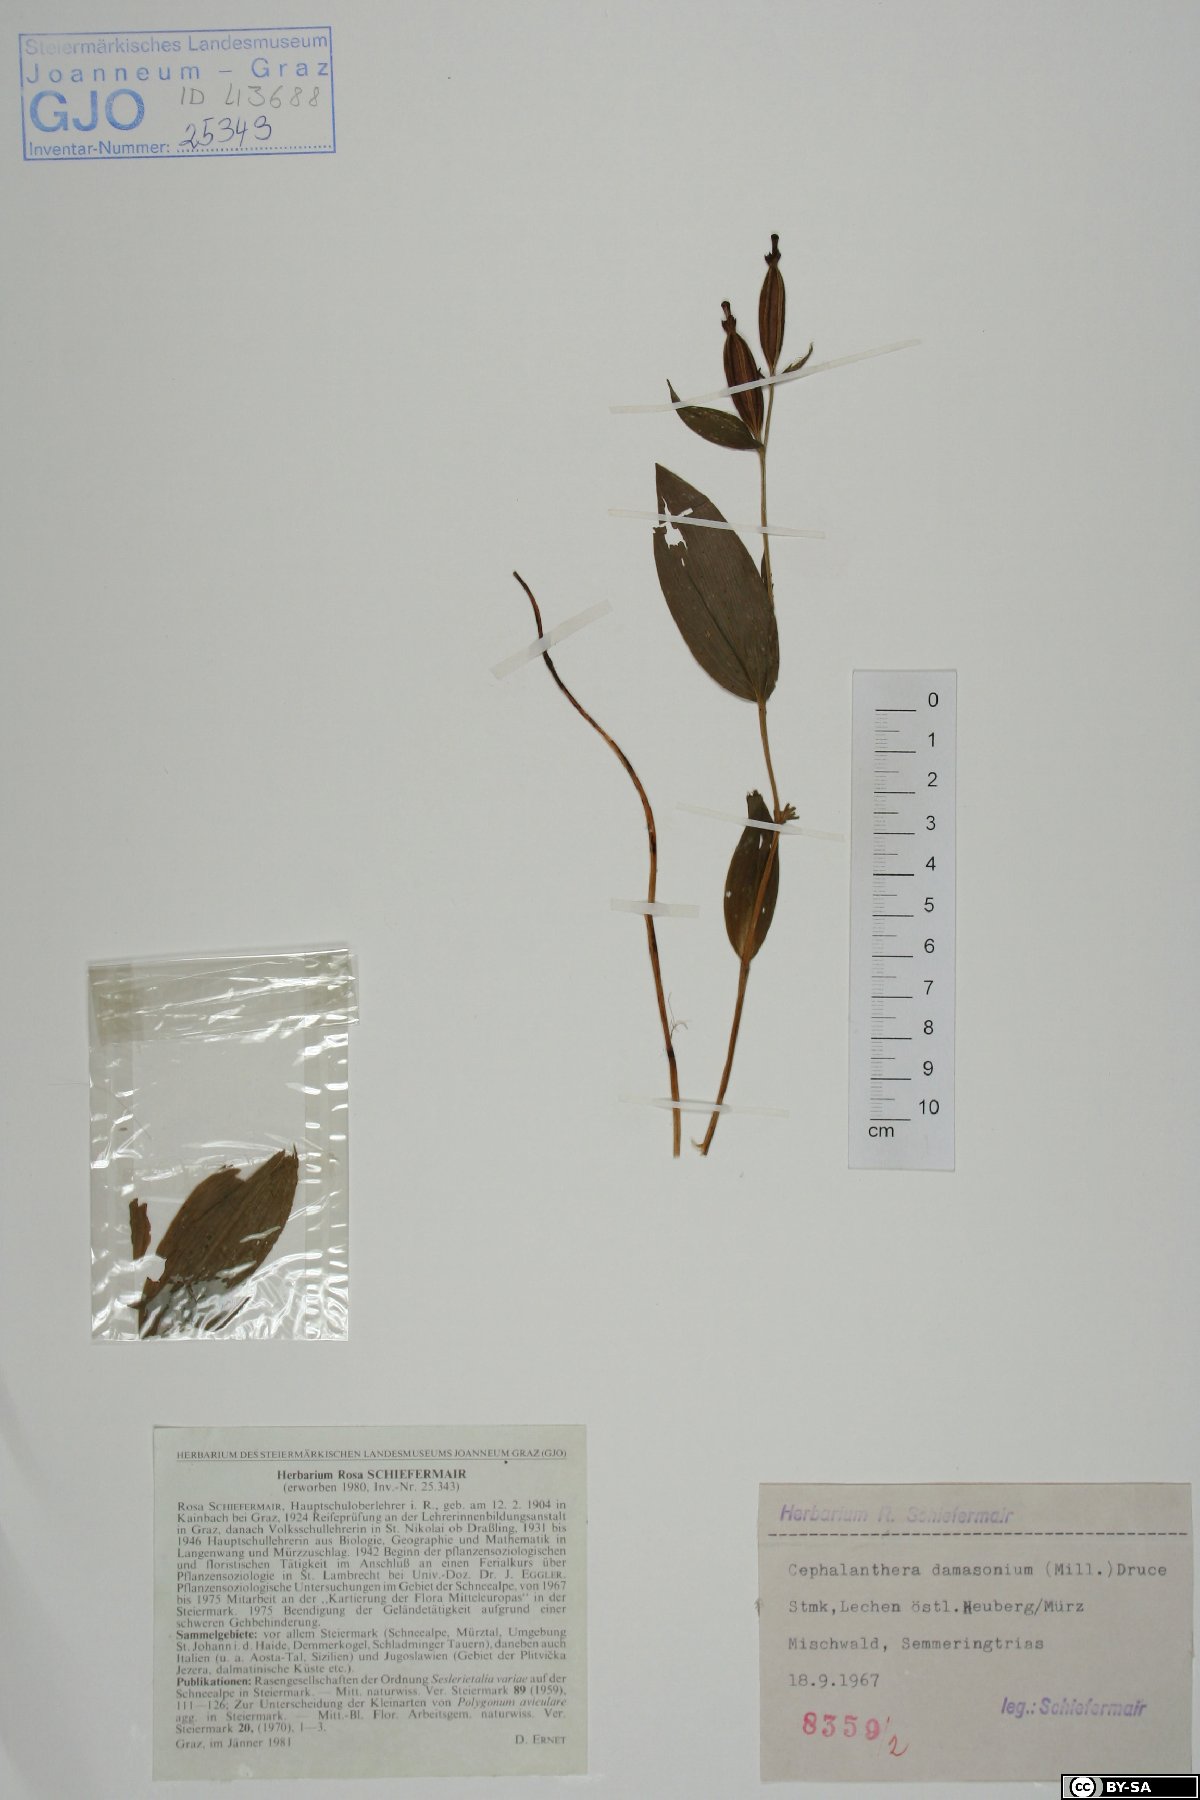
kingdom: Plantae
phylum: Tracheophyta
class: Liliopsida
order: Asparagales
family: Orchidaceae
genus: Cephalanthera
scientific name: Cephalanthera damasonium
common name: White helleborine
